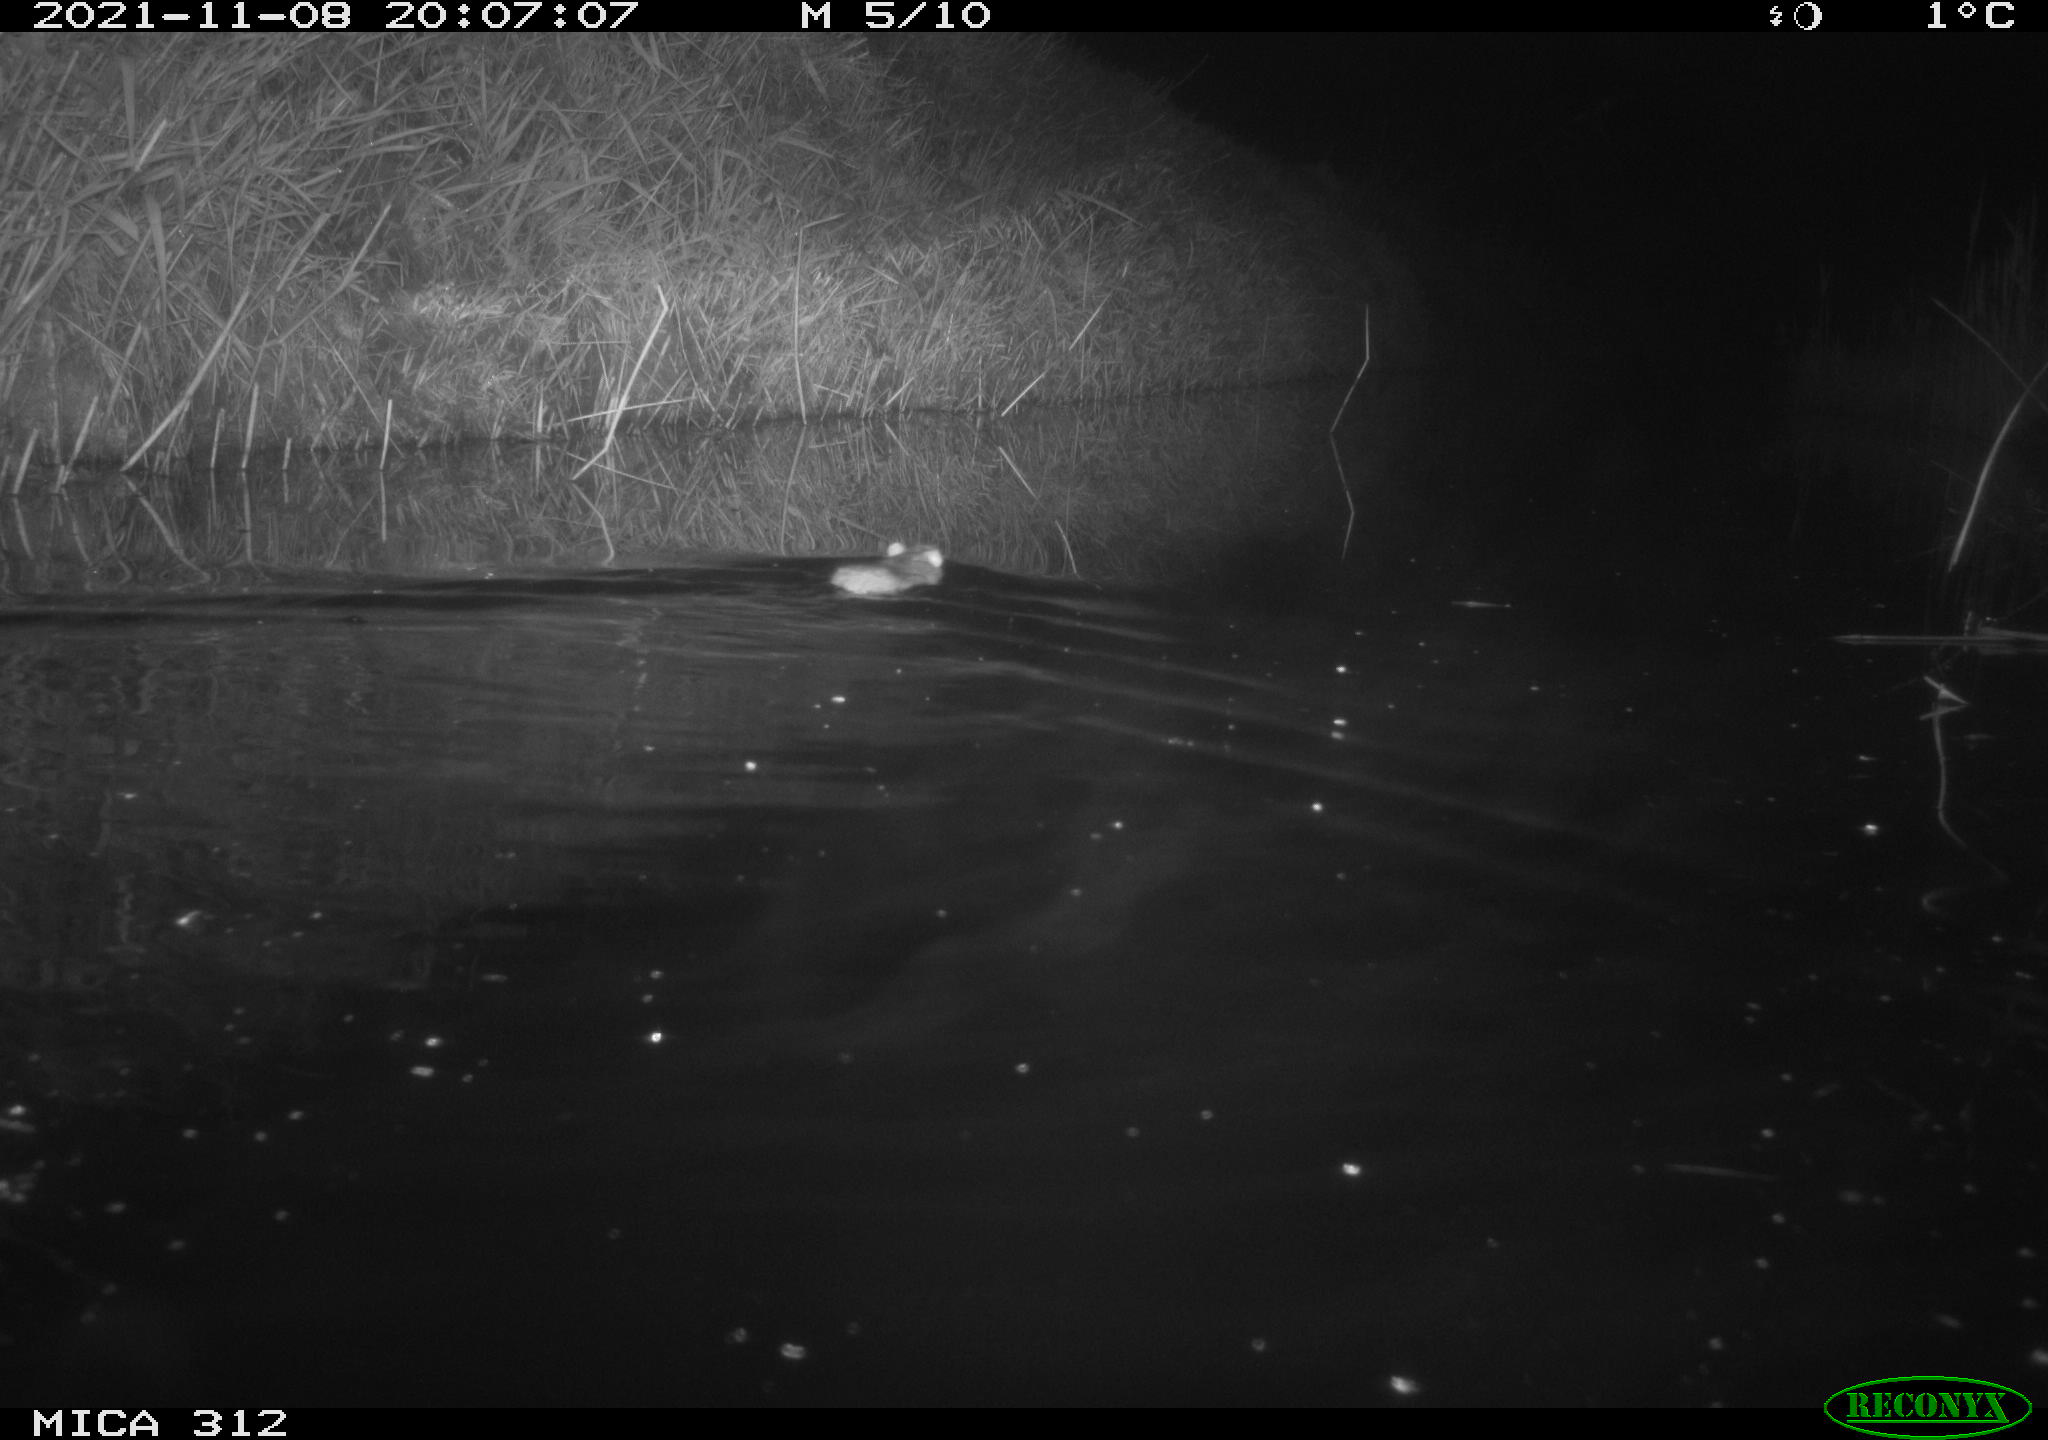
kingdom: Animalia
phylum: Chordata
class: Mammalia
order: Rodentia
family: Muridae
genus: Rattus
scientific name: Rattus norvegicus
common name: Brown rat
